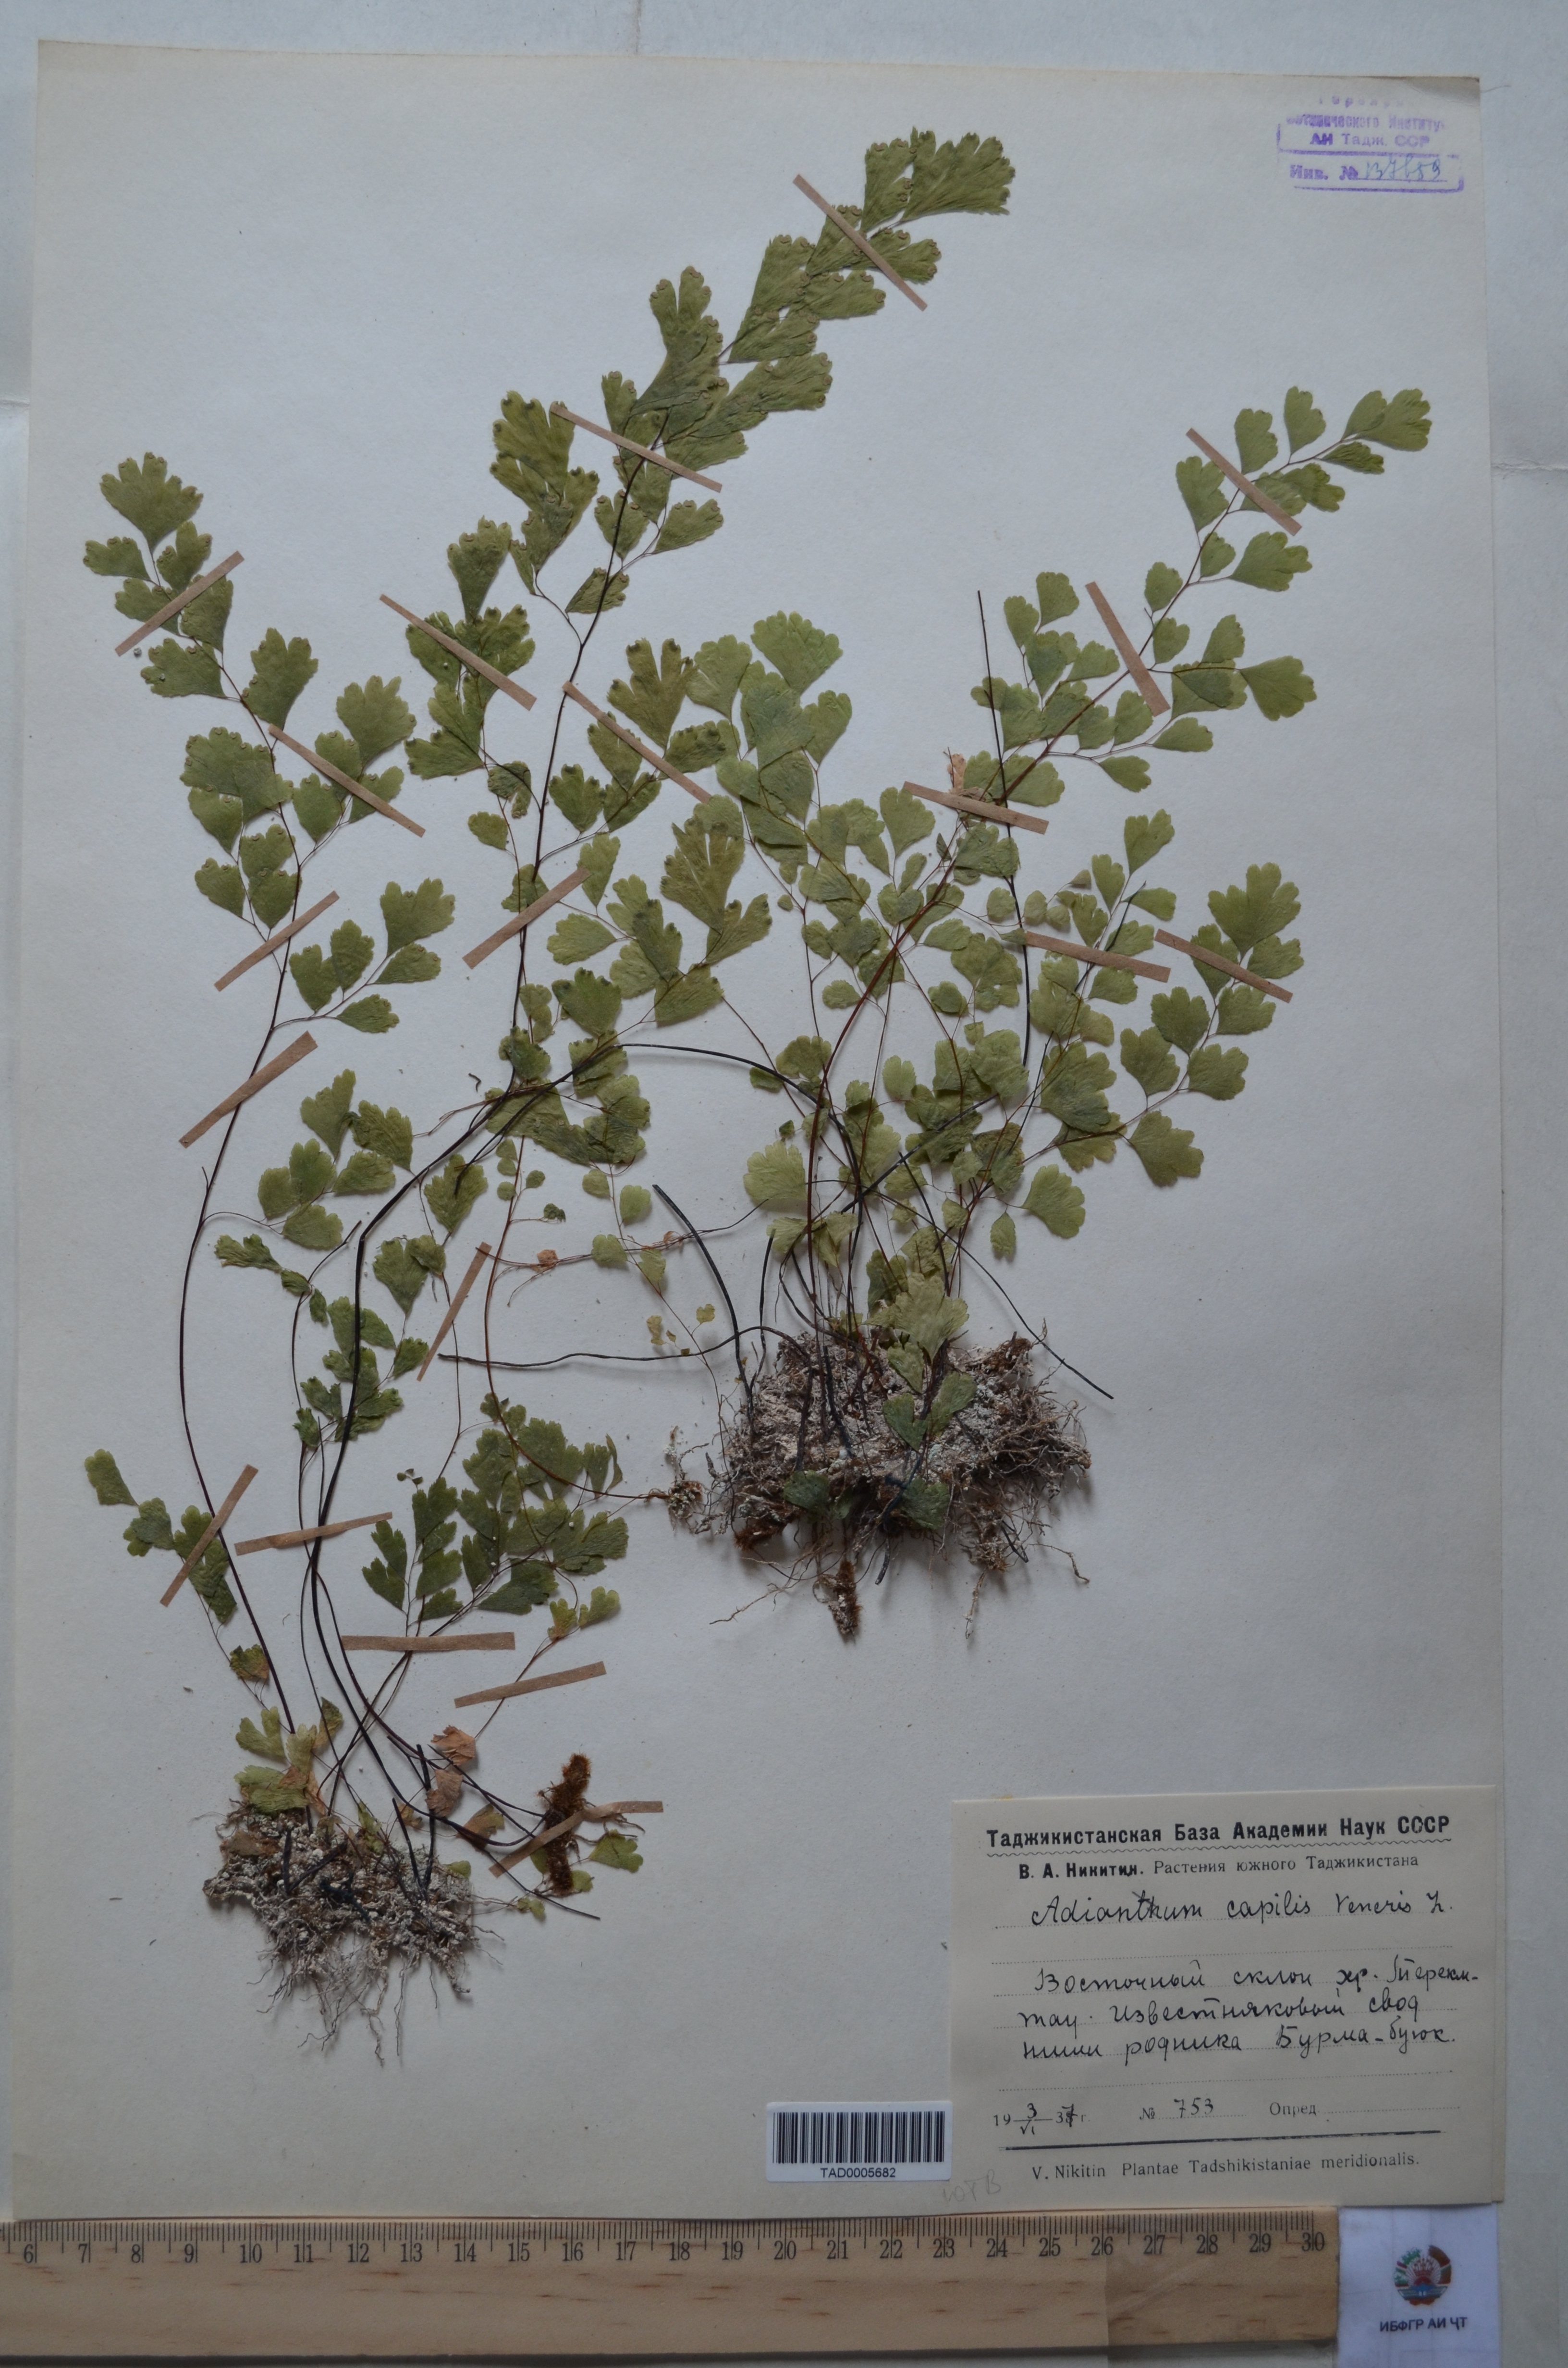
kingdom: Plantae
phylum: Tracheophyta
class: Polypodiopsida
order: Polypodiales
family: Pteridaceae
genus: Adiantum
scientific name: Adiantum capillus-veneris
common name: Maidenhair fern
